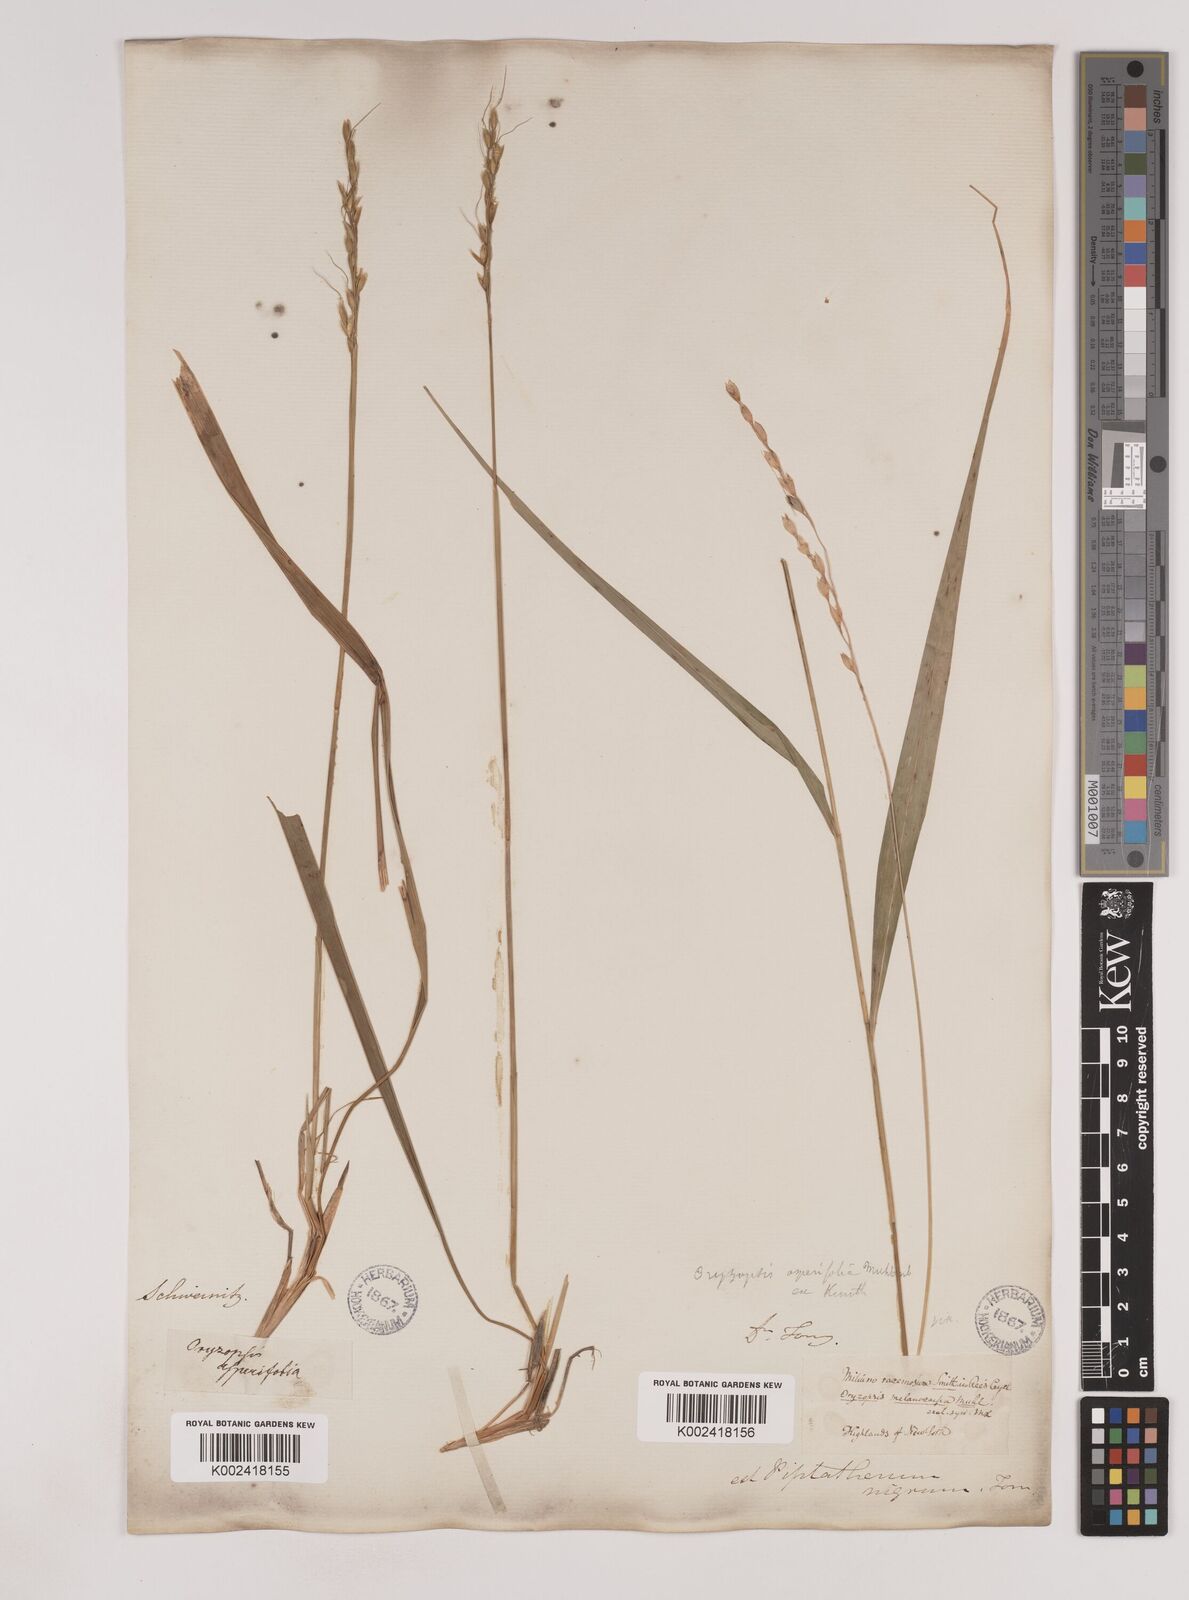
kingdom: Plantae
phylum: Tracheophyta
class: Liliopsida
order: Poales
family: Poaceae
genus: Oryzopsis
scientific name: Oryzopsis asperifolia
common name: Rough-leaved mountain rice
